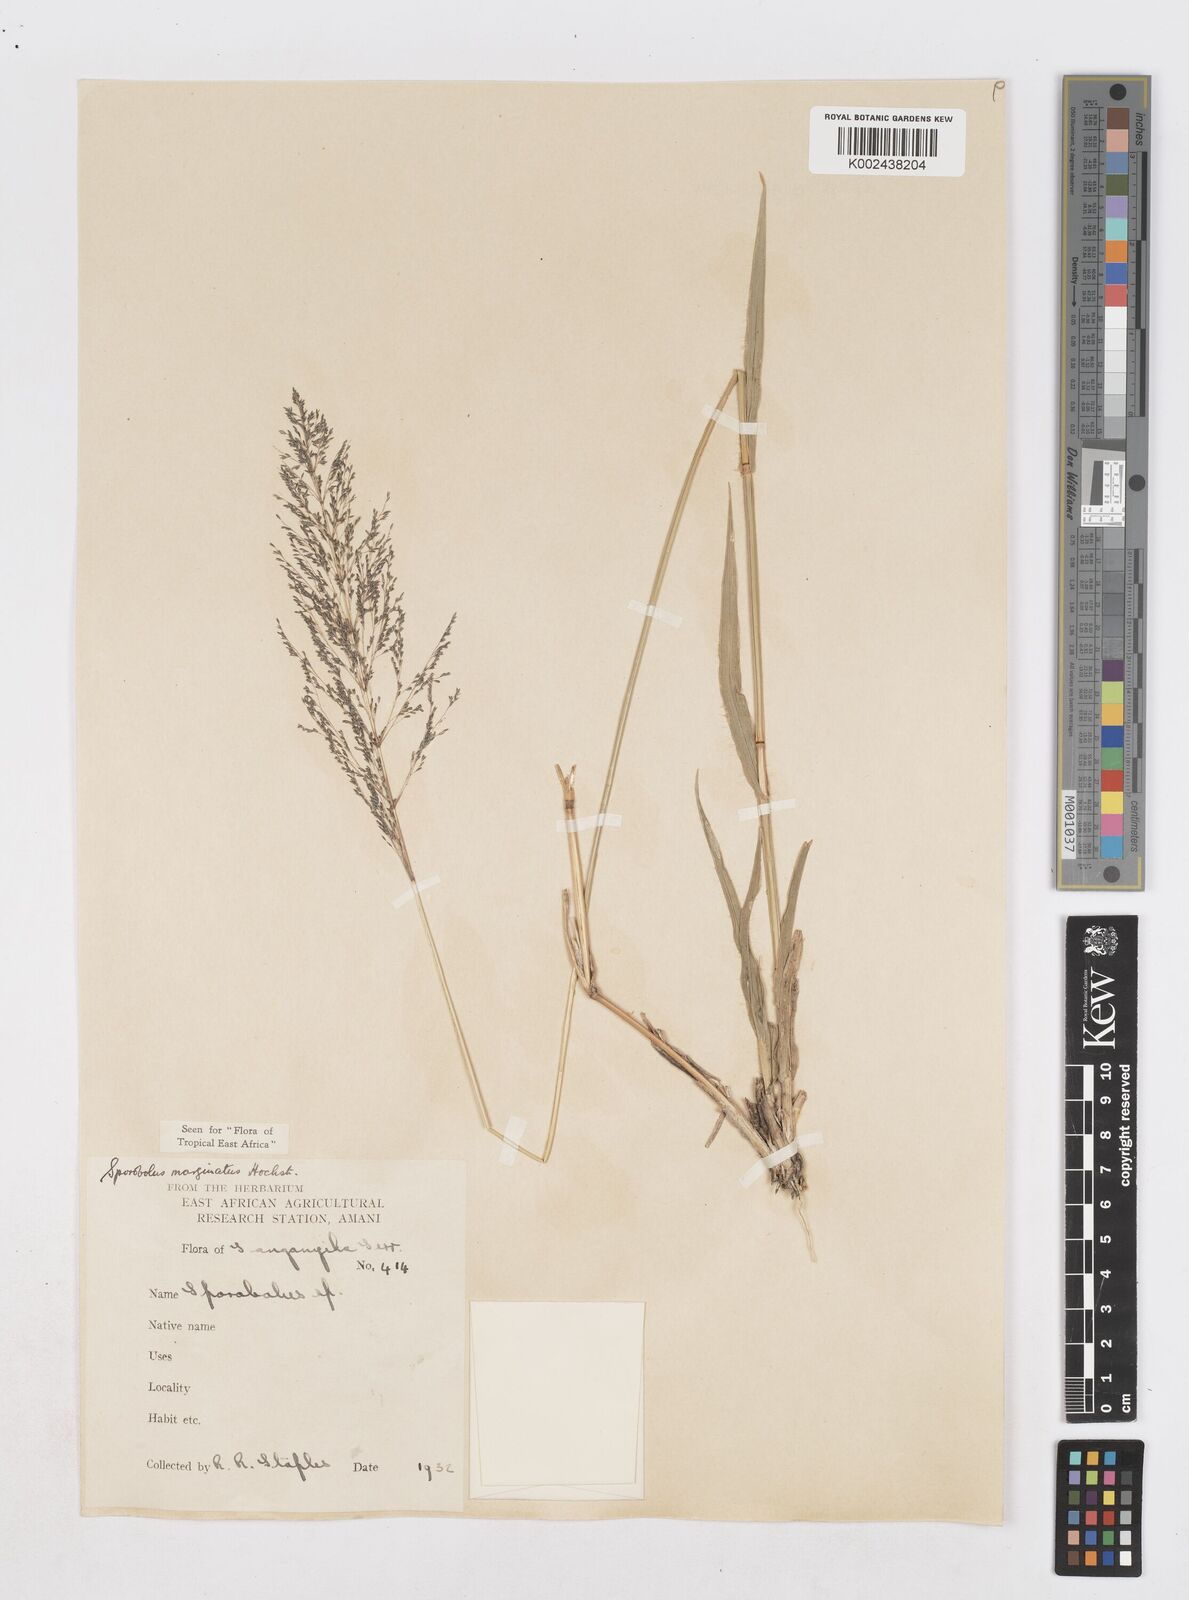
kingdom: Plantae
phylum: Tracheophyta
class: Liliopsida
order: Poales
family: Poaceae
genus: Sporobolus
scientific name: Sporobolus ioclados
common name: Pan dropseed
